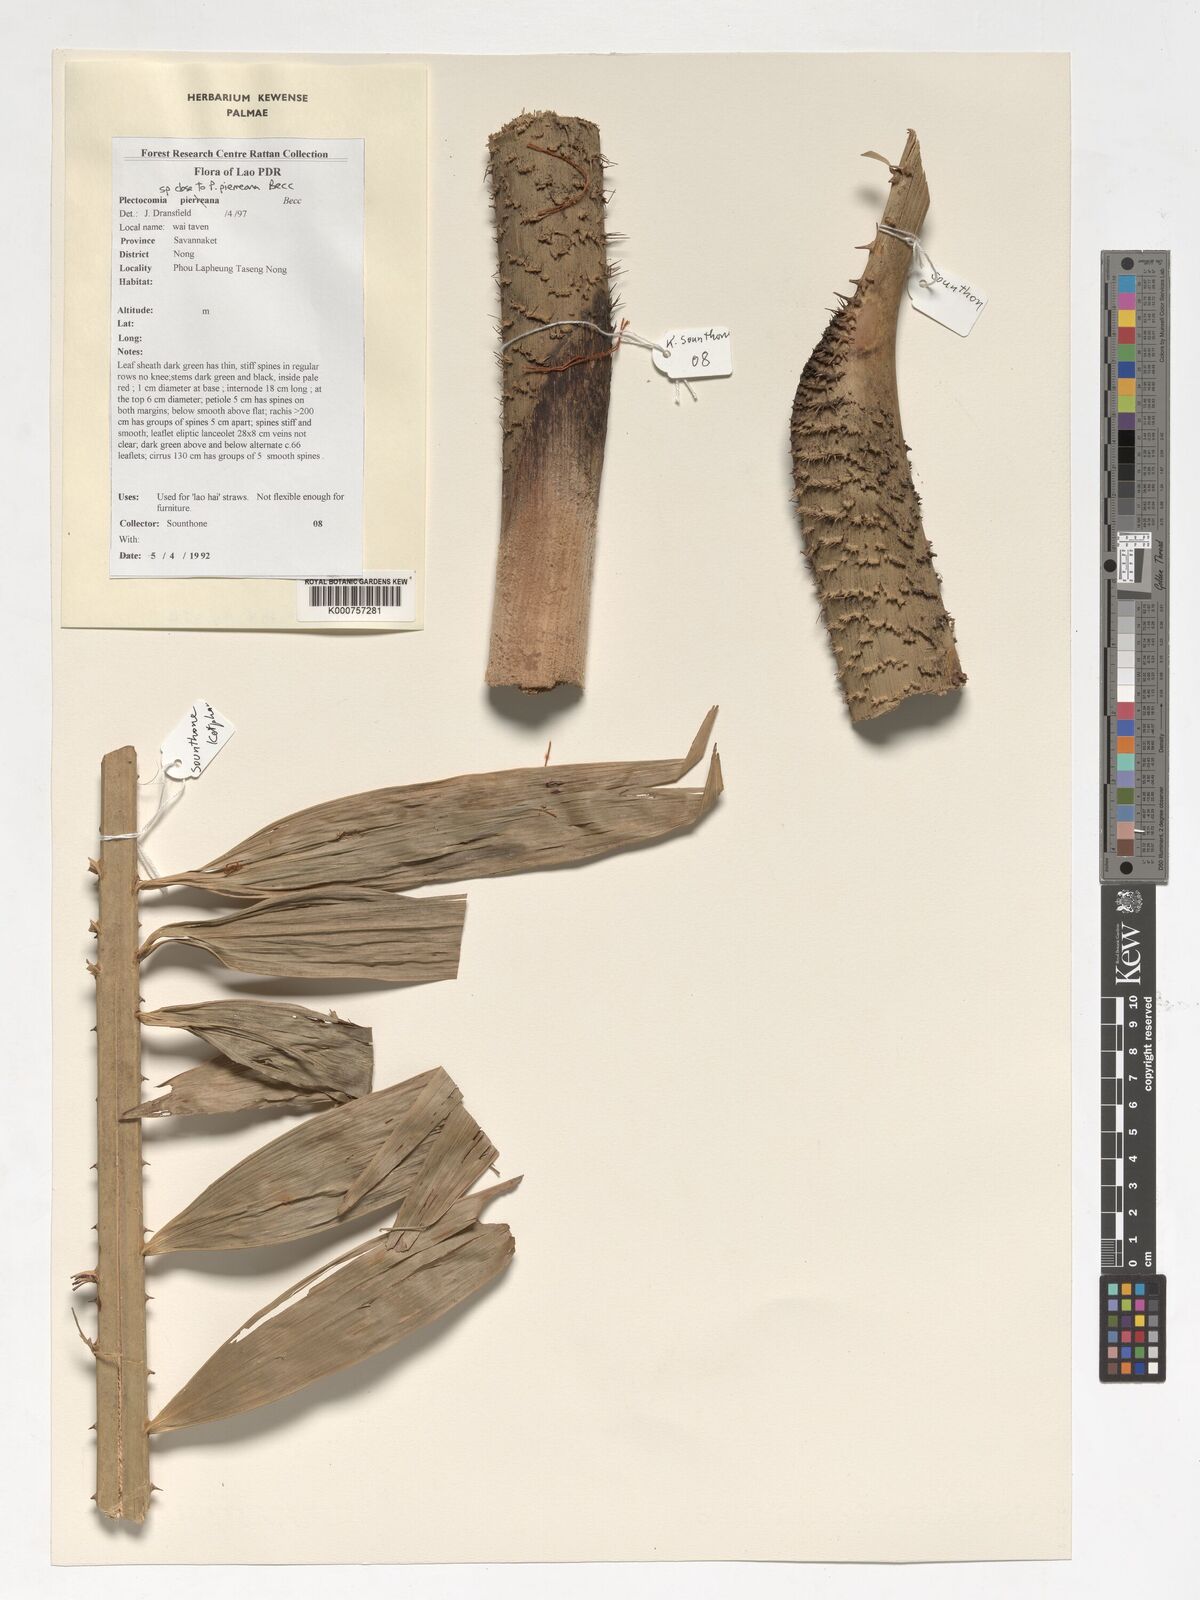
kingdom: Plantae
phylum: Tracheophyta
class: Liliopsida
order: Arecales
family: Arecaceae
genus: Plectocomia
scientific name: Plectocomia pierreana
